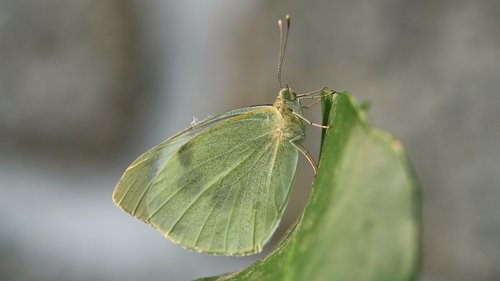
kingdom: Animalia
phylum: Arthropoda
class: Insecta
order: Lepidoptera
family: Pieridae
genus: Pieris
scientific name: Pieris brassicae
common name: Large white
